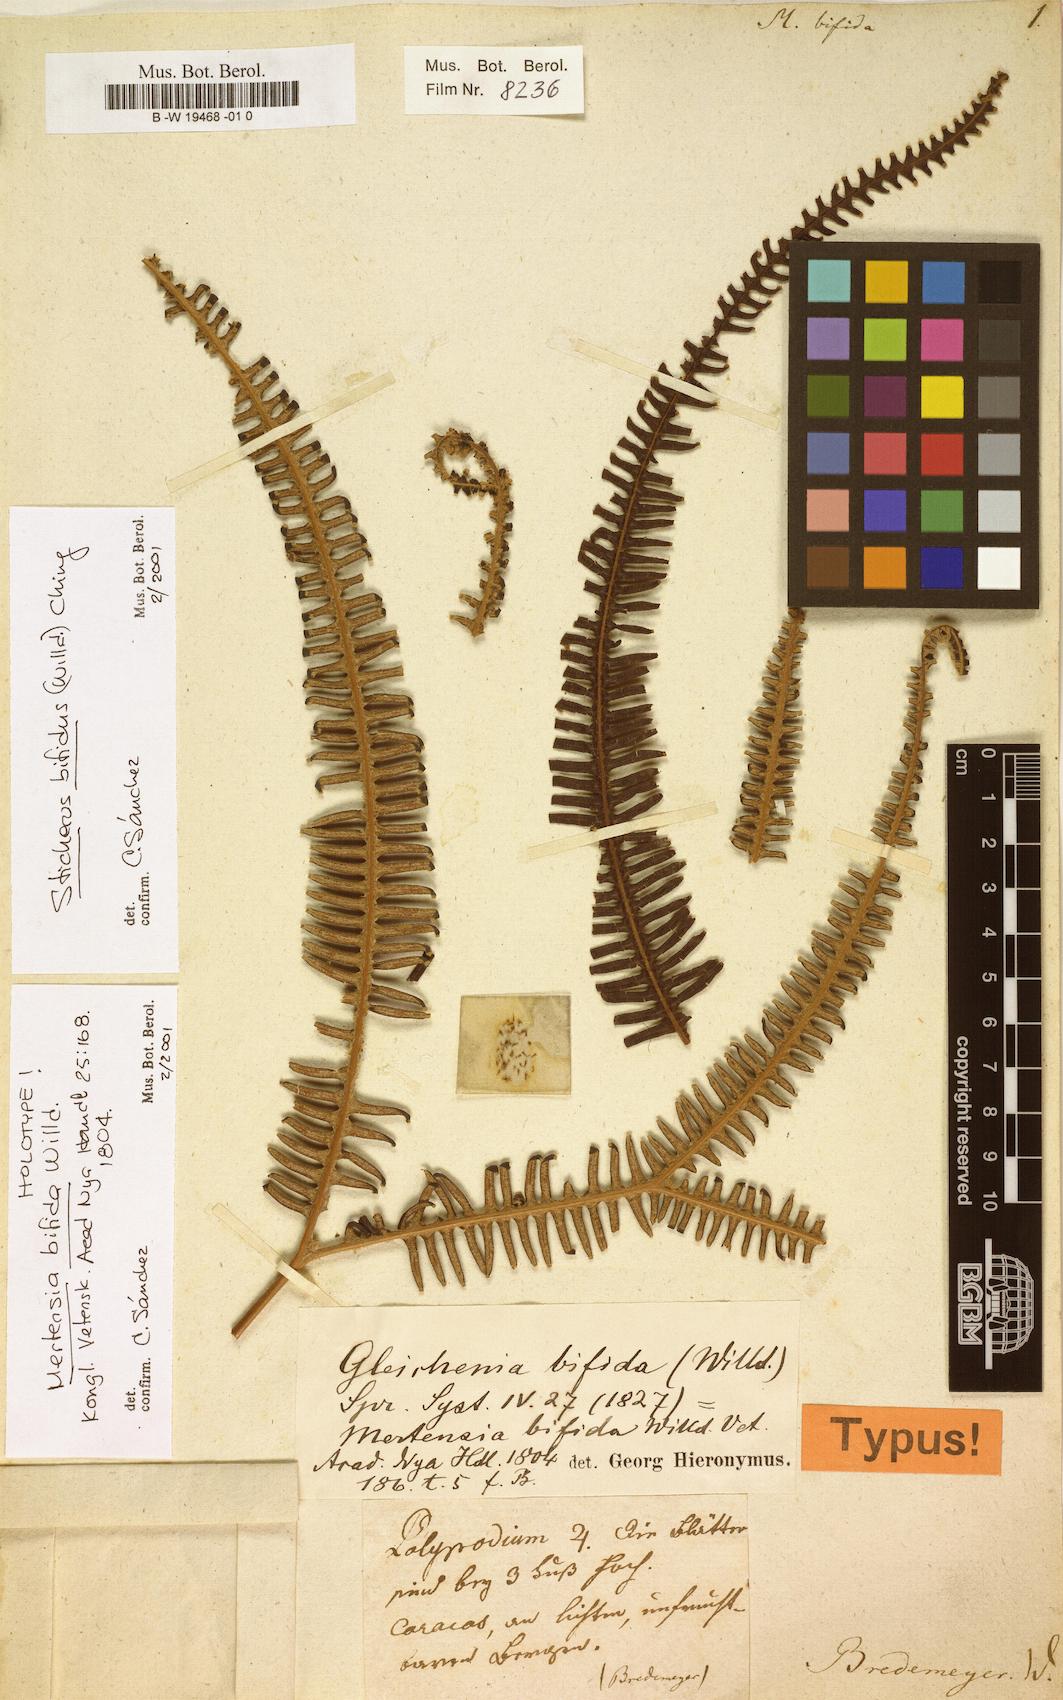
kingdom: Plantae
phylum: Tracheophyta
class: Polypodiopsida
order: Gleicheniales
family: Gleicheniaceae
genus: Sticherus
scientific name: Sticherus bifidus
